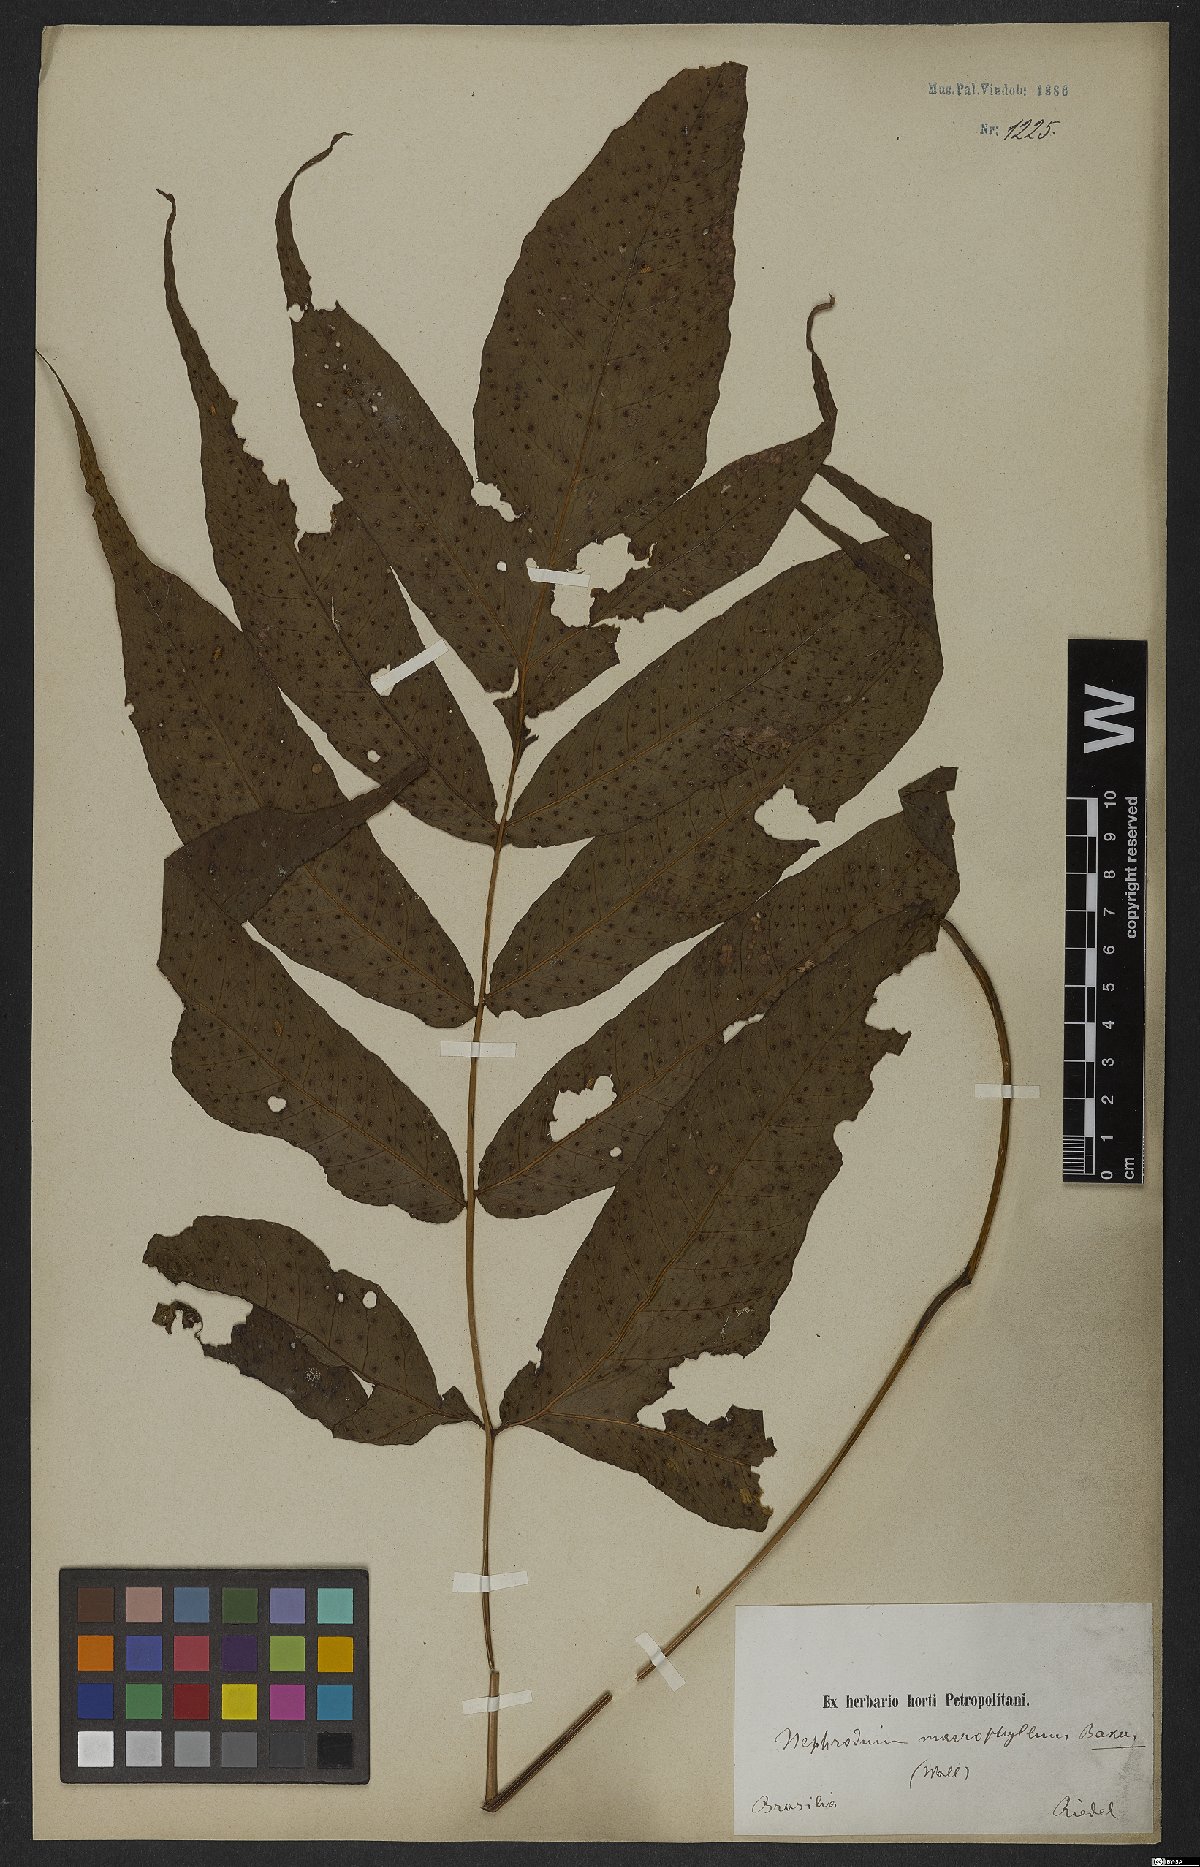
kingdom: Plantae
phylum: Tracheophyta
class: Polypodiopsida
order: Polypodiales
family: Tectariaceae
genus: Tectaria
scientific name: Tectaria incisa
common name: Incised halberd fern
